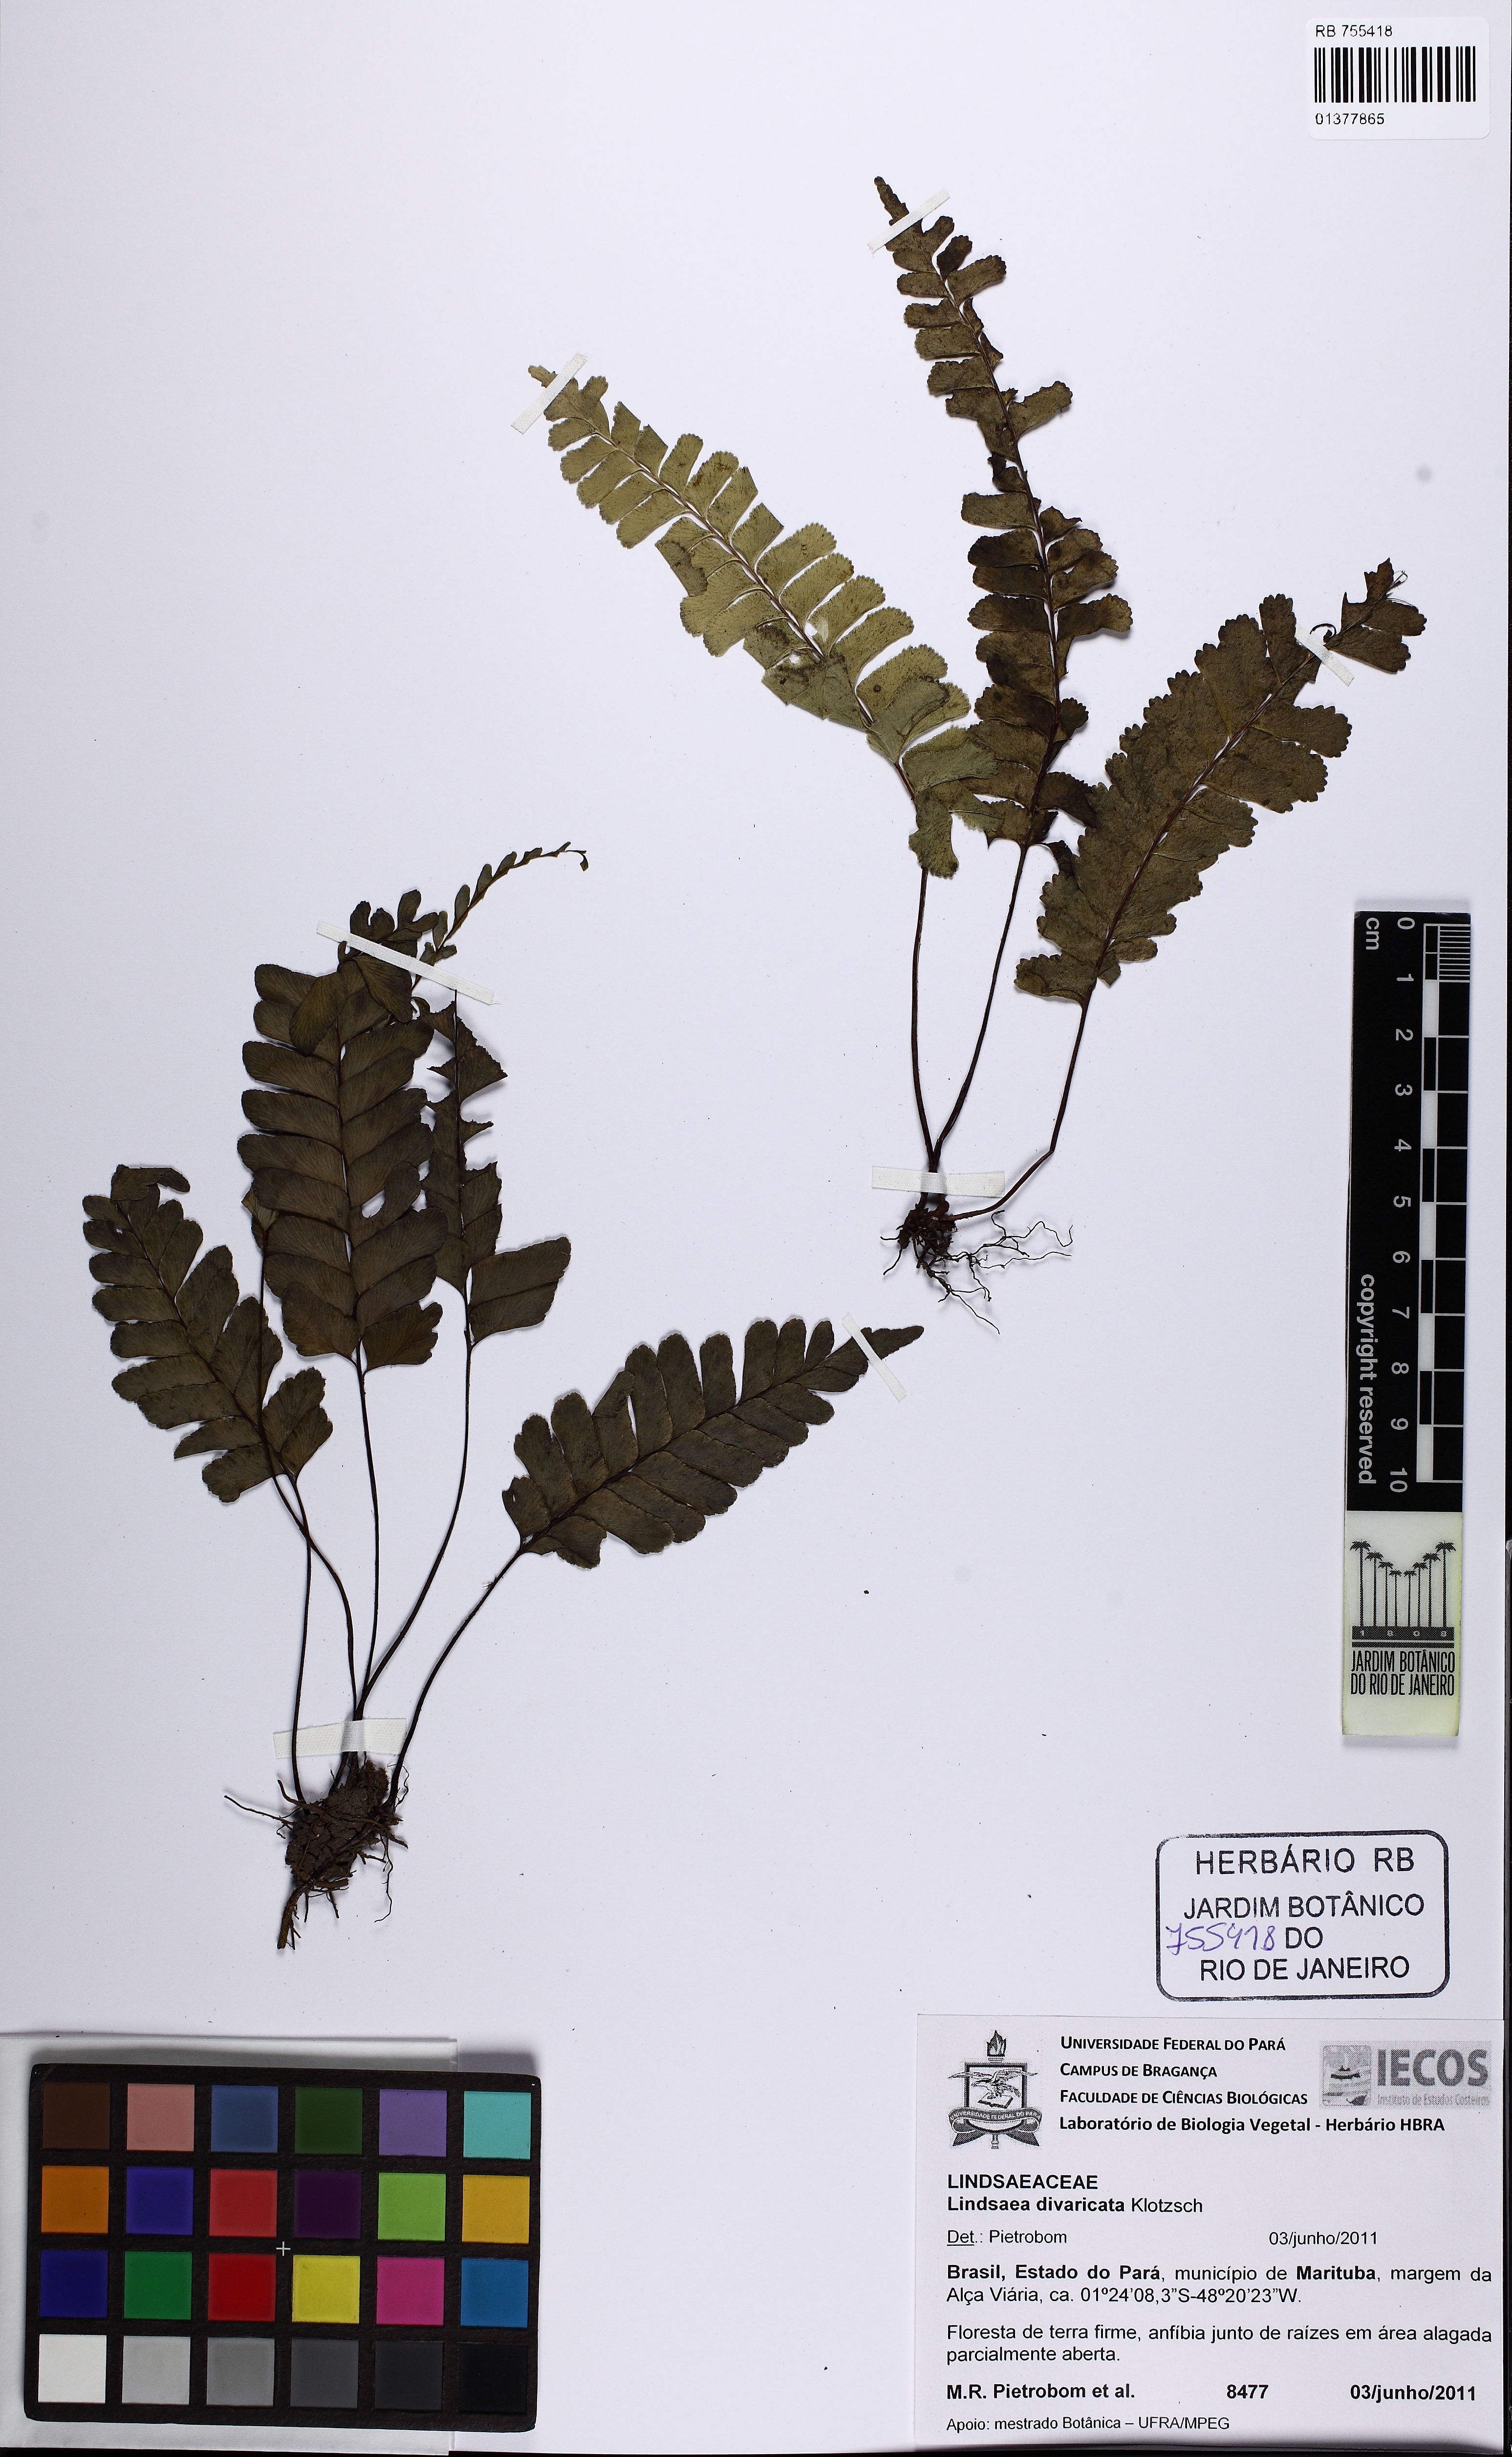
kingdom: Plantae
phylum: Tracheophyta
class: Polypodiopsida
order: Polypodiales
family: Lindsaeaceae
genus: Lindsaea
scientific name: Lindsaea divaricata
